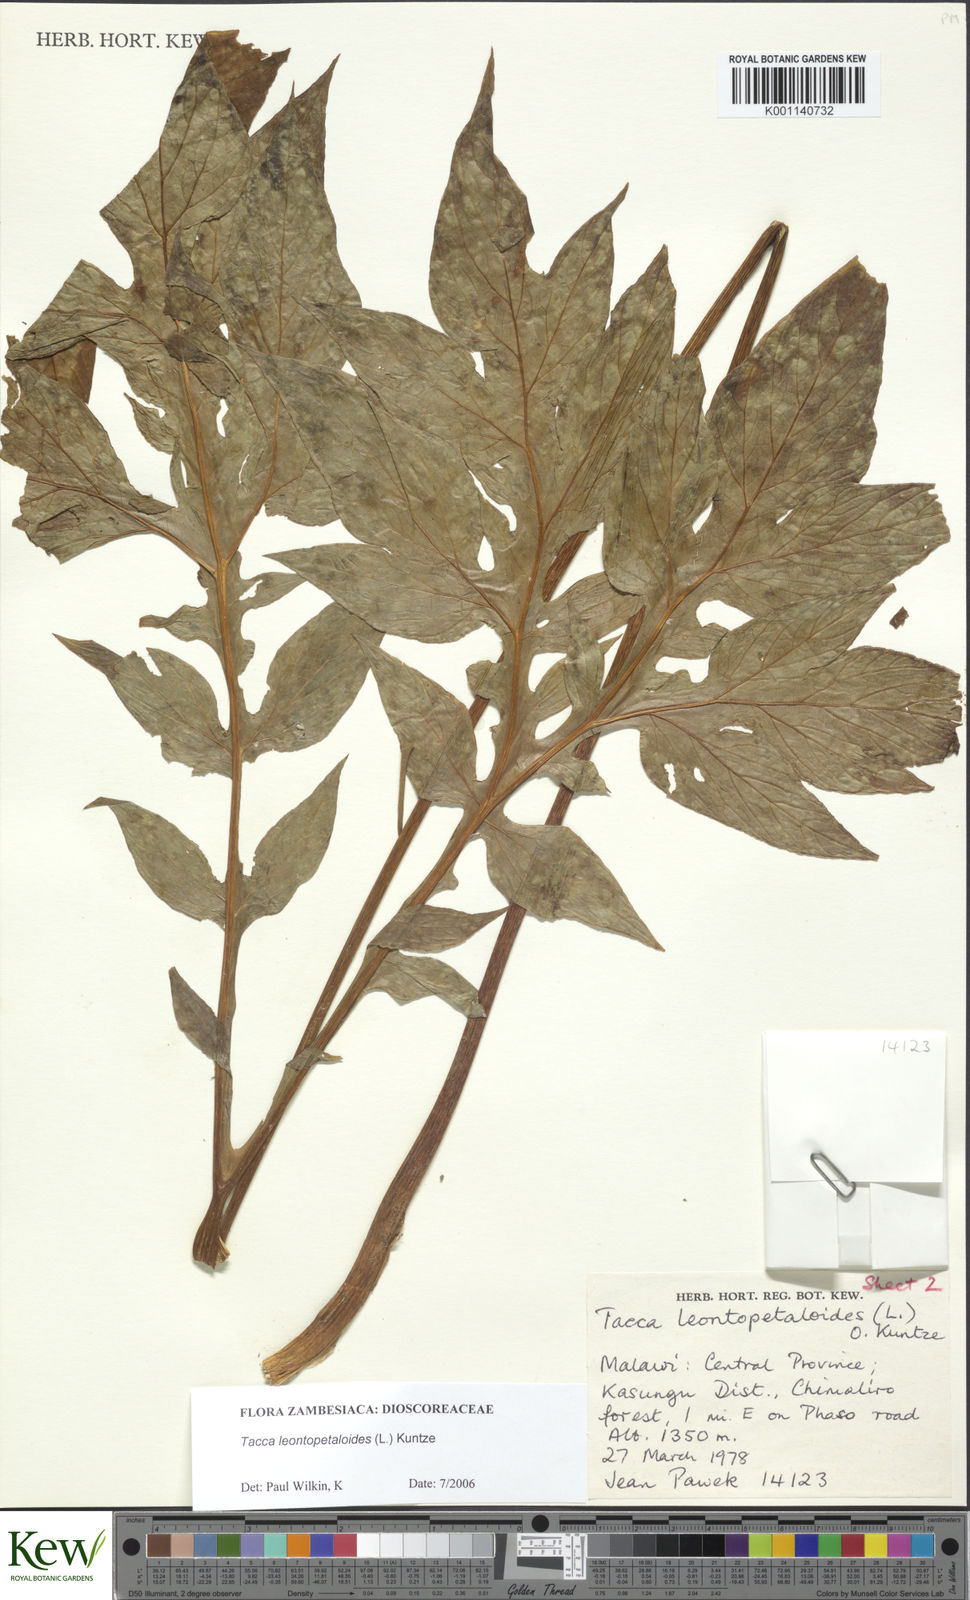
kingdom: Plantae
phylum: Tracheophyta
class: Liliopsida
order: Dioscoreales
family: Dioscoreaceae
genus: Tacca
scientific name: Tacca leontopetaloides
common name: Arrowroot
